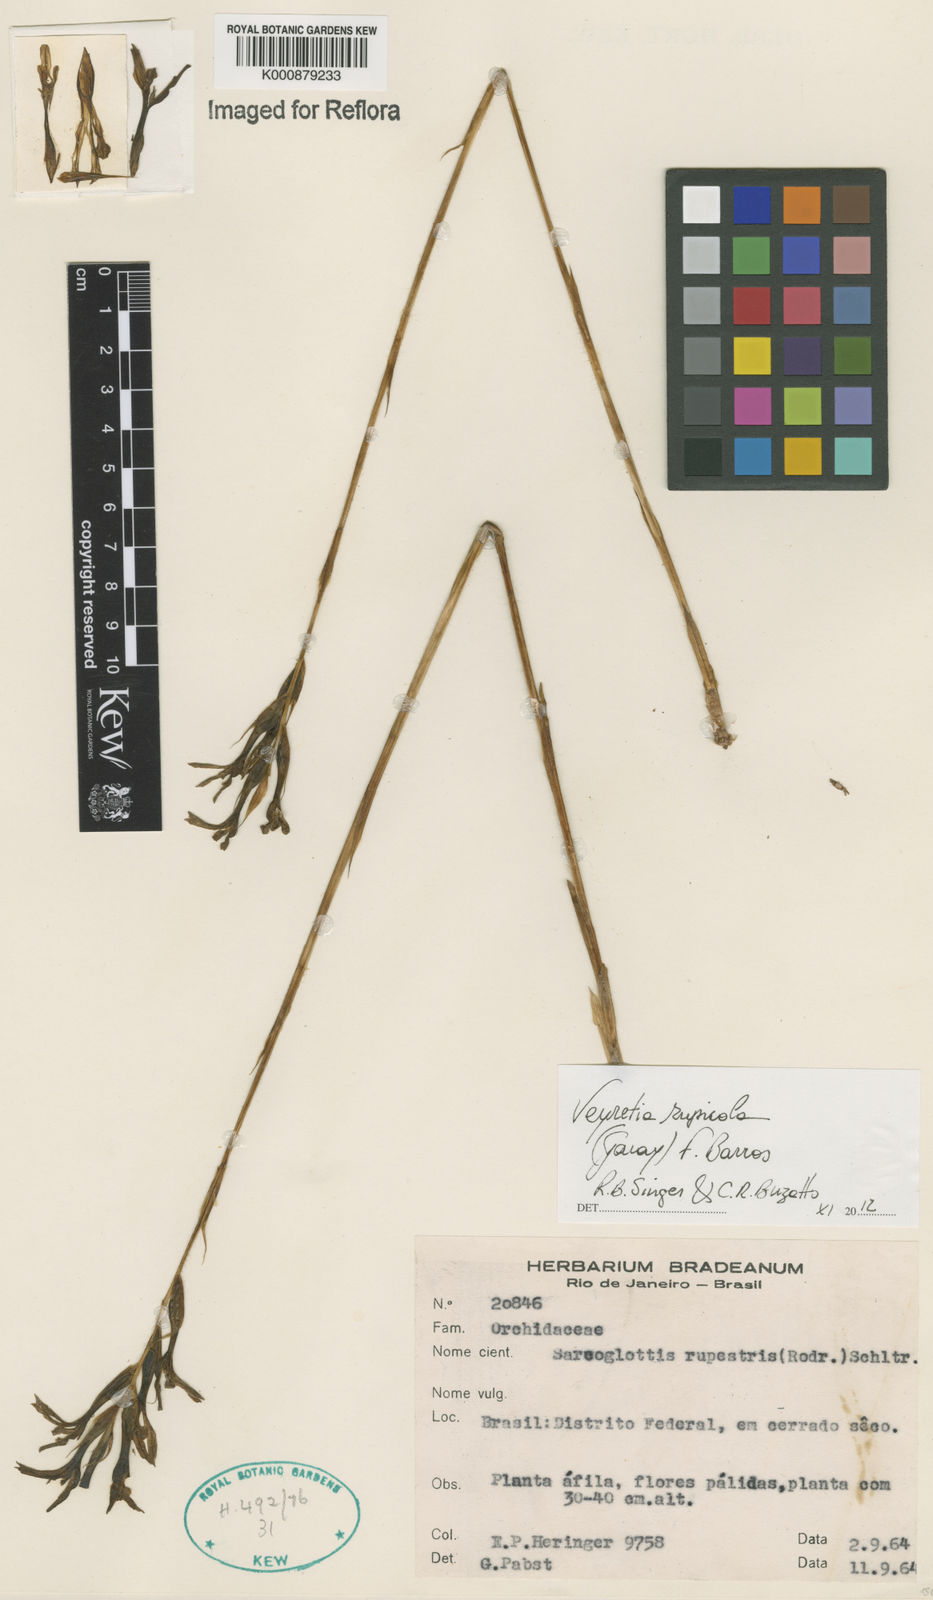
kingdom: Plantae
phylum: Tracheophyta
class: Liliopsida
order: Asparagales
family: Orchidaceae
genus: Veyretia
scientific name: Veyretia rupicola
